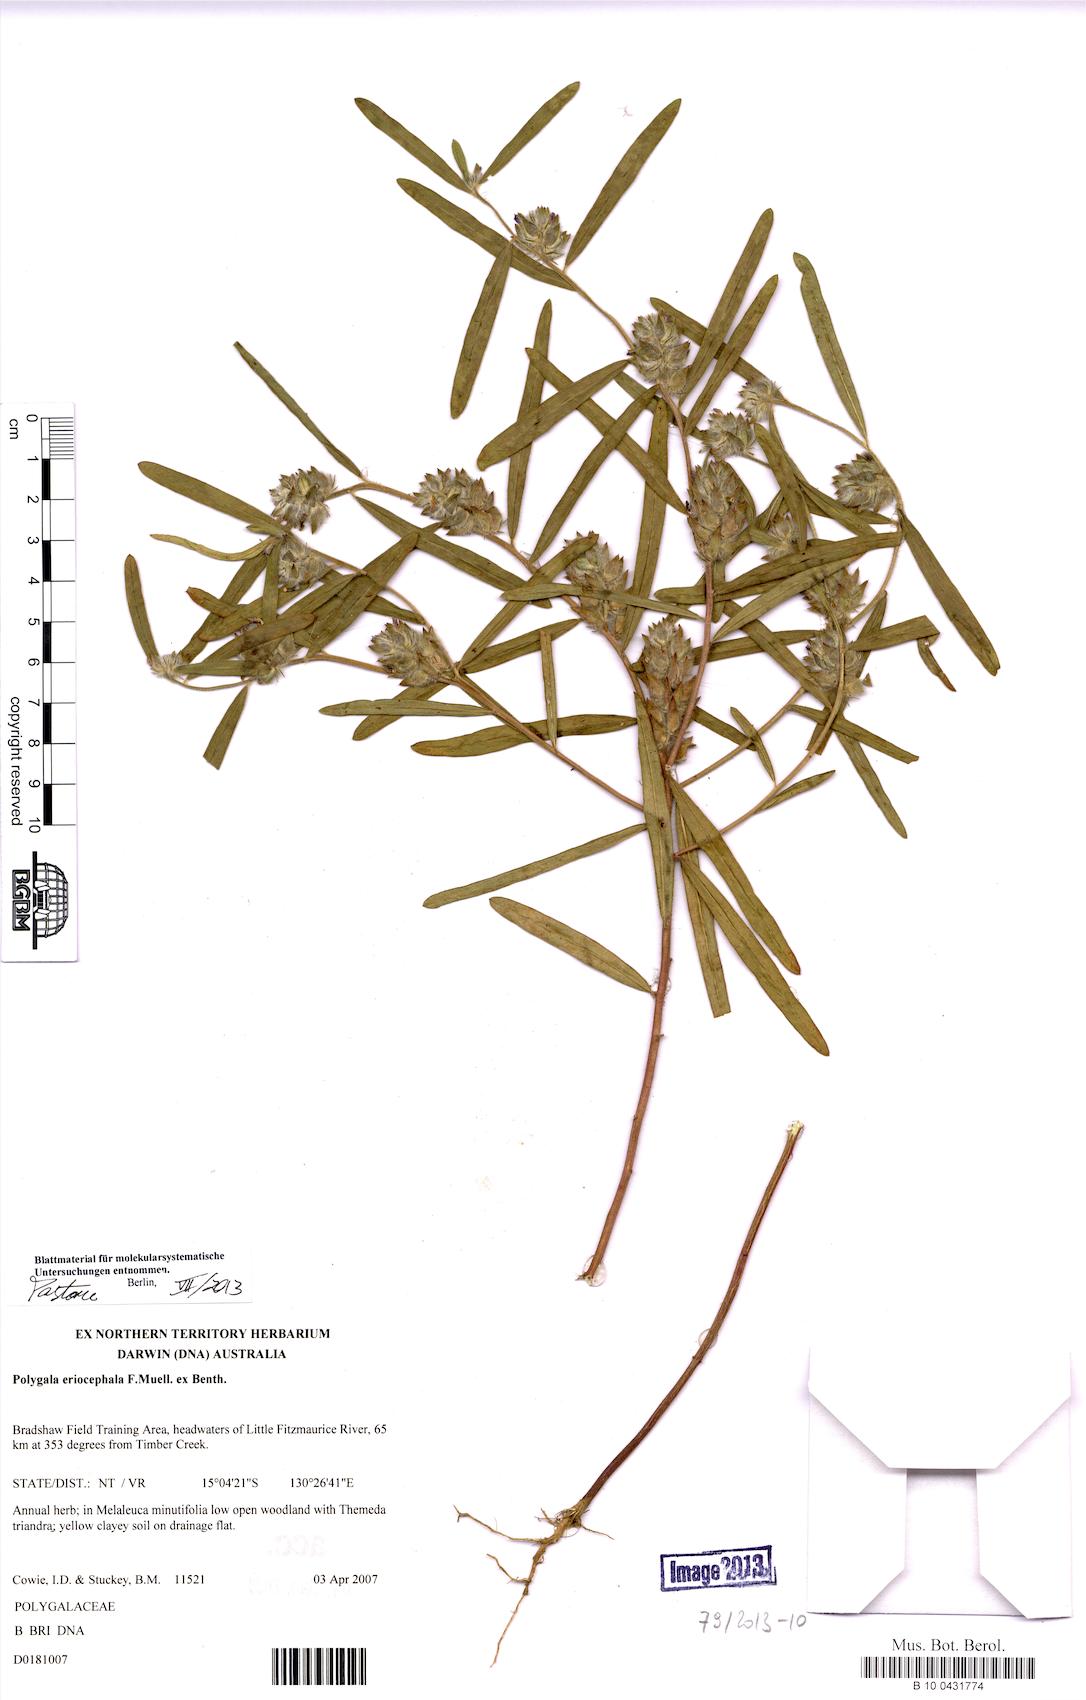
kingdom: Plantae
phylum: Tracheophyta
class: Magnoliopsida
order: Fabales
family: Polygalaceae
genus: Polygala
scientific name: Polygala eriocephala
